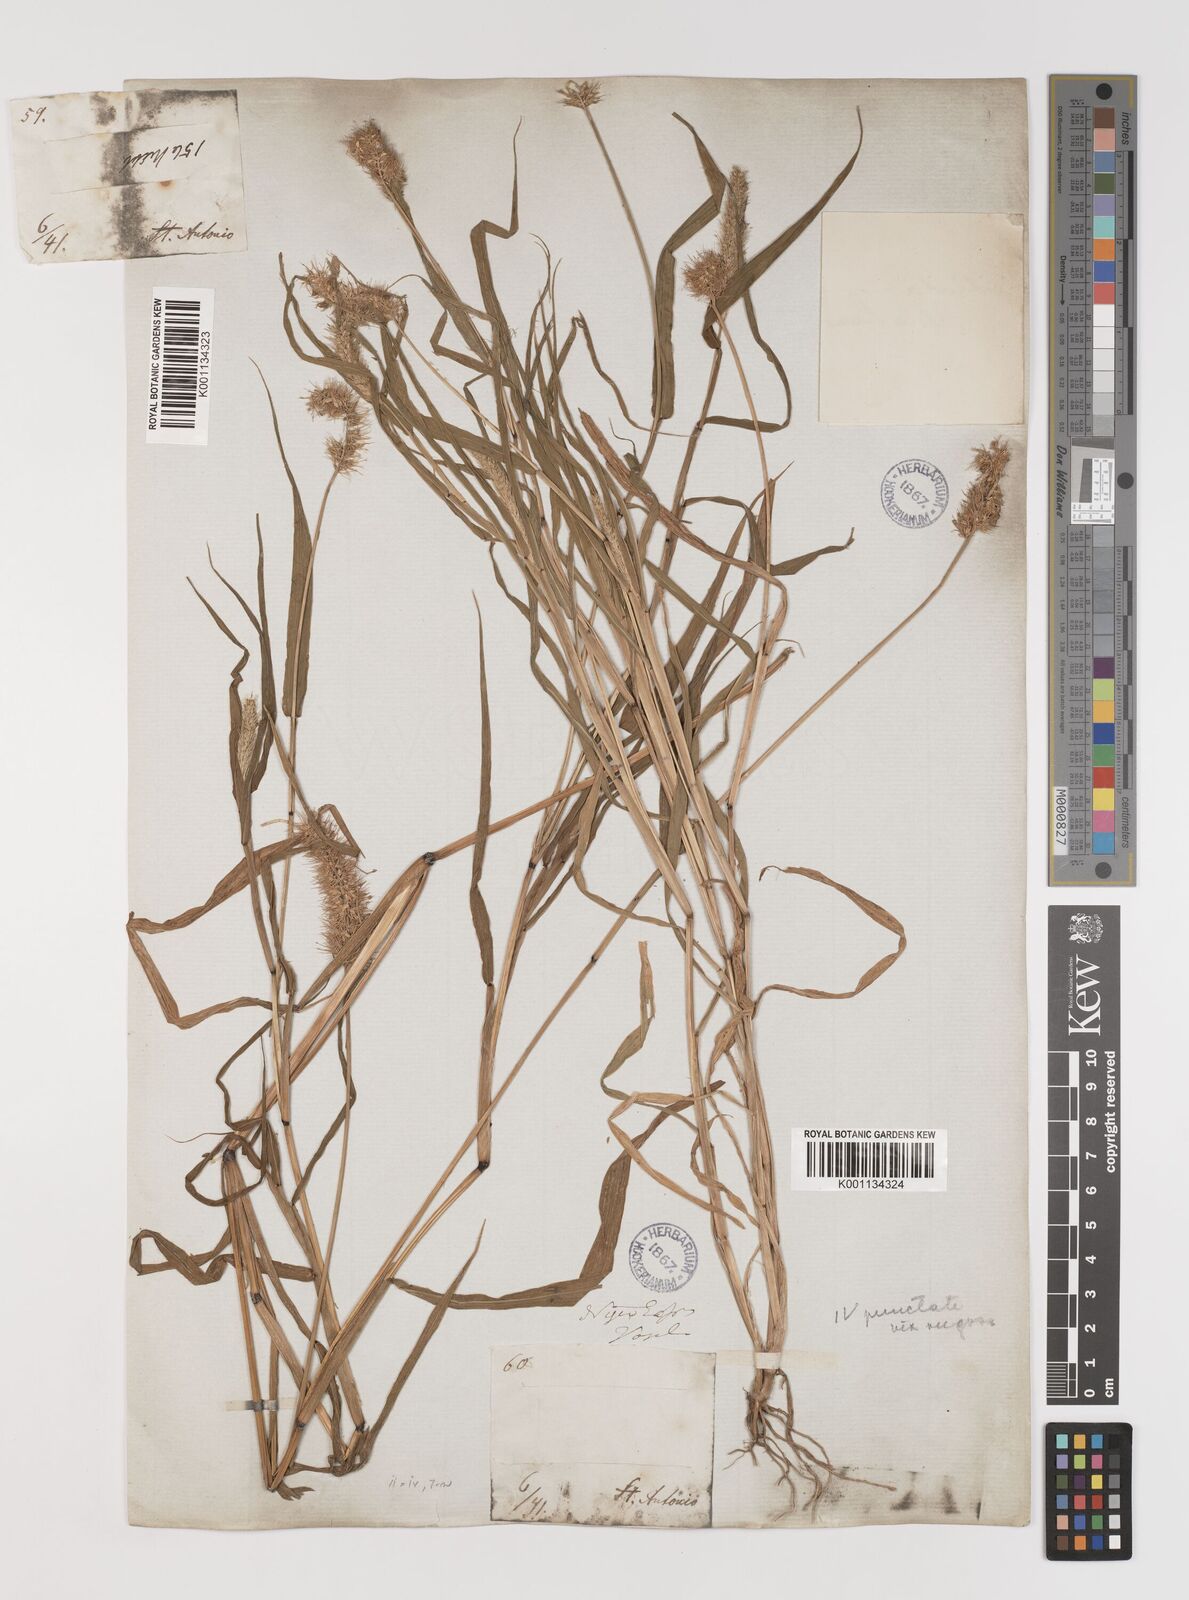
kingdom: Plantae
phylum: Tracheophyta
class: Liliopsida
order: Poales
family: Poaceae
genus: Setaria
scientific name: Setaria verticillata
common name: Hooked bristlegrass
